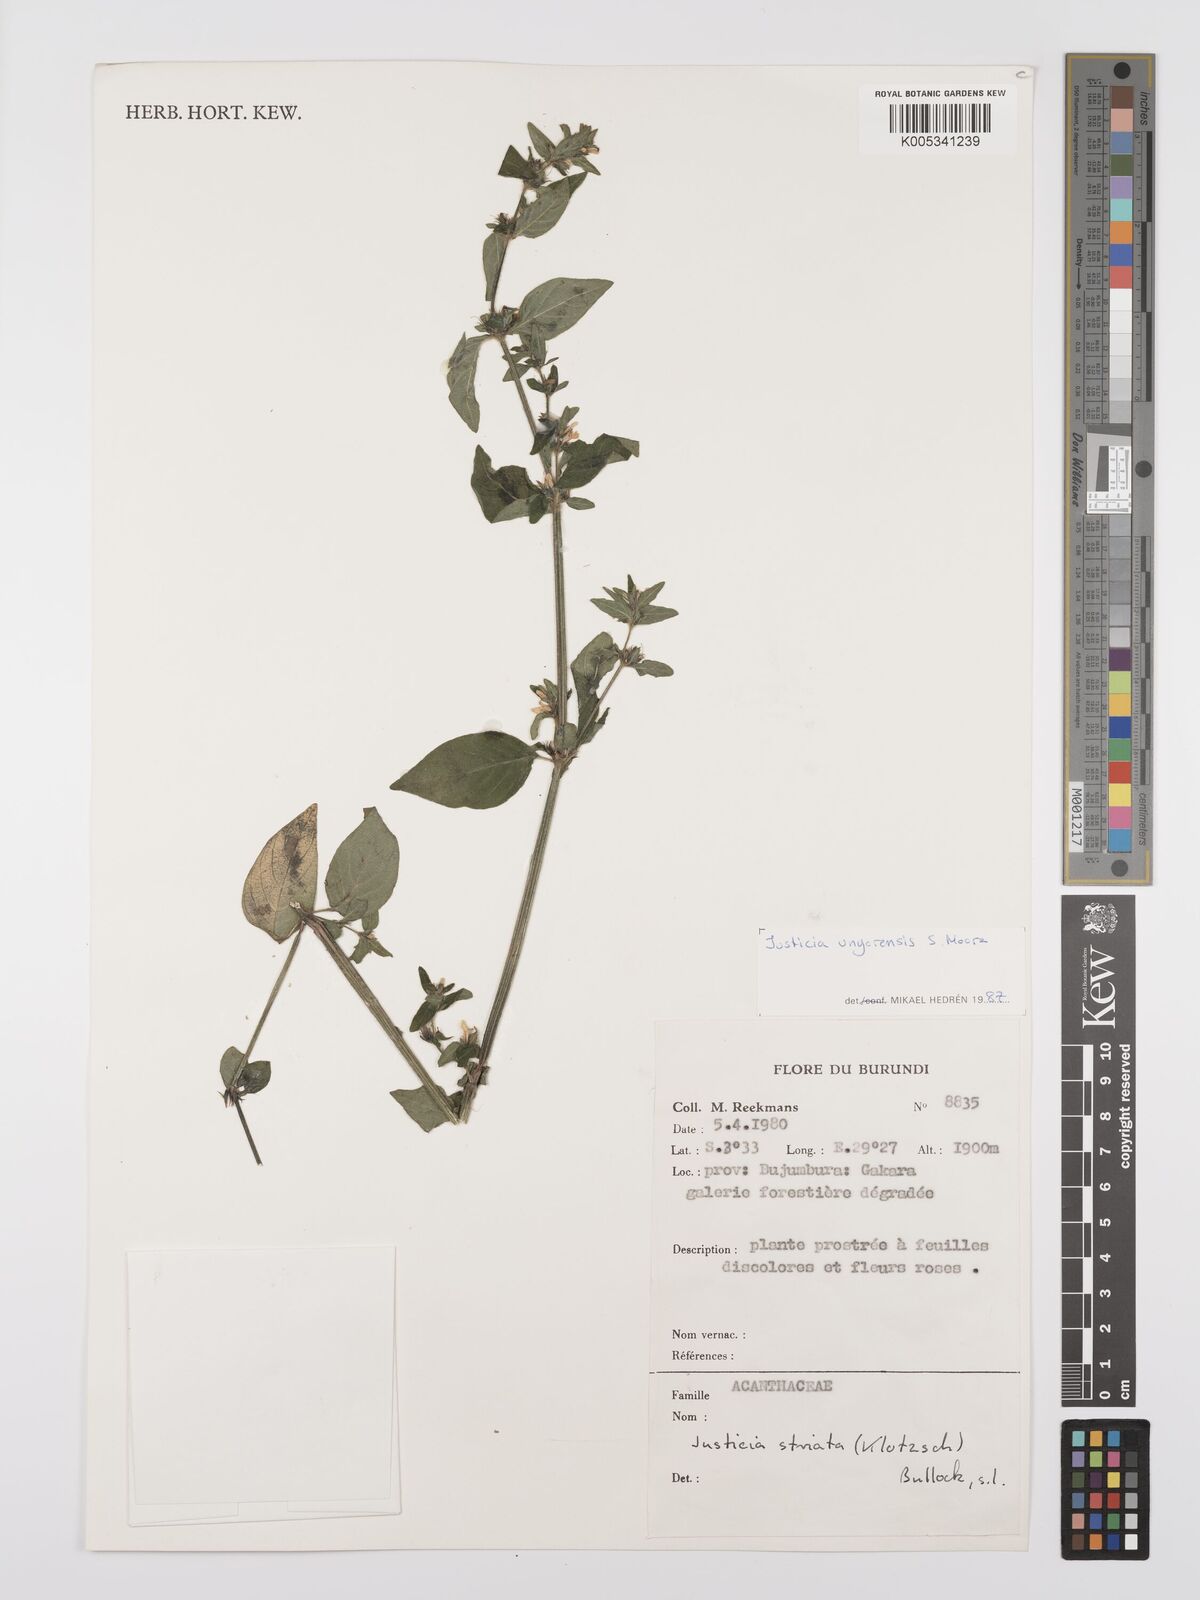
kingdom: Plantae
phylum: Tracheophyta
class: Magnoliopsida
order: Lamiales
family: Acanthaceae
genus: Justicia
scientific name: Justicia unyorensis
